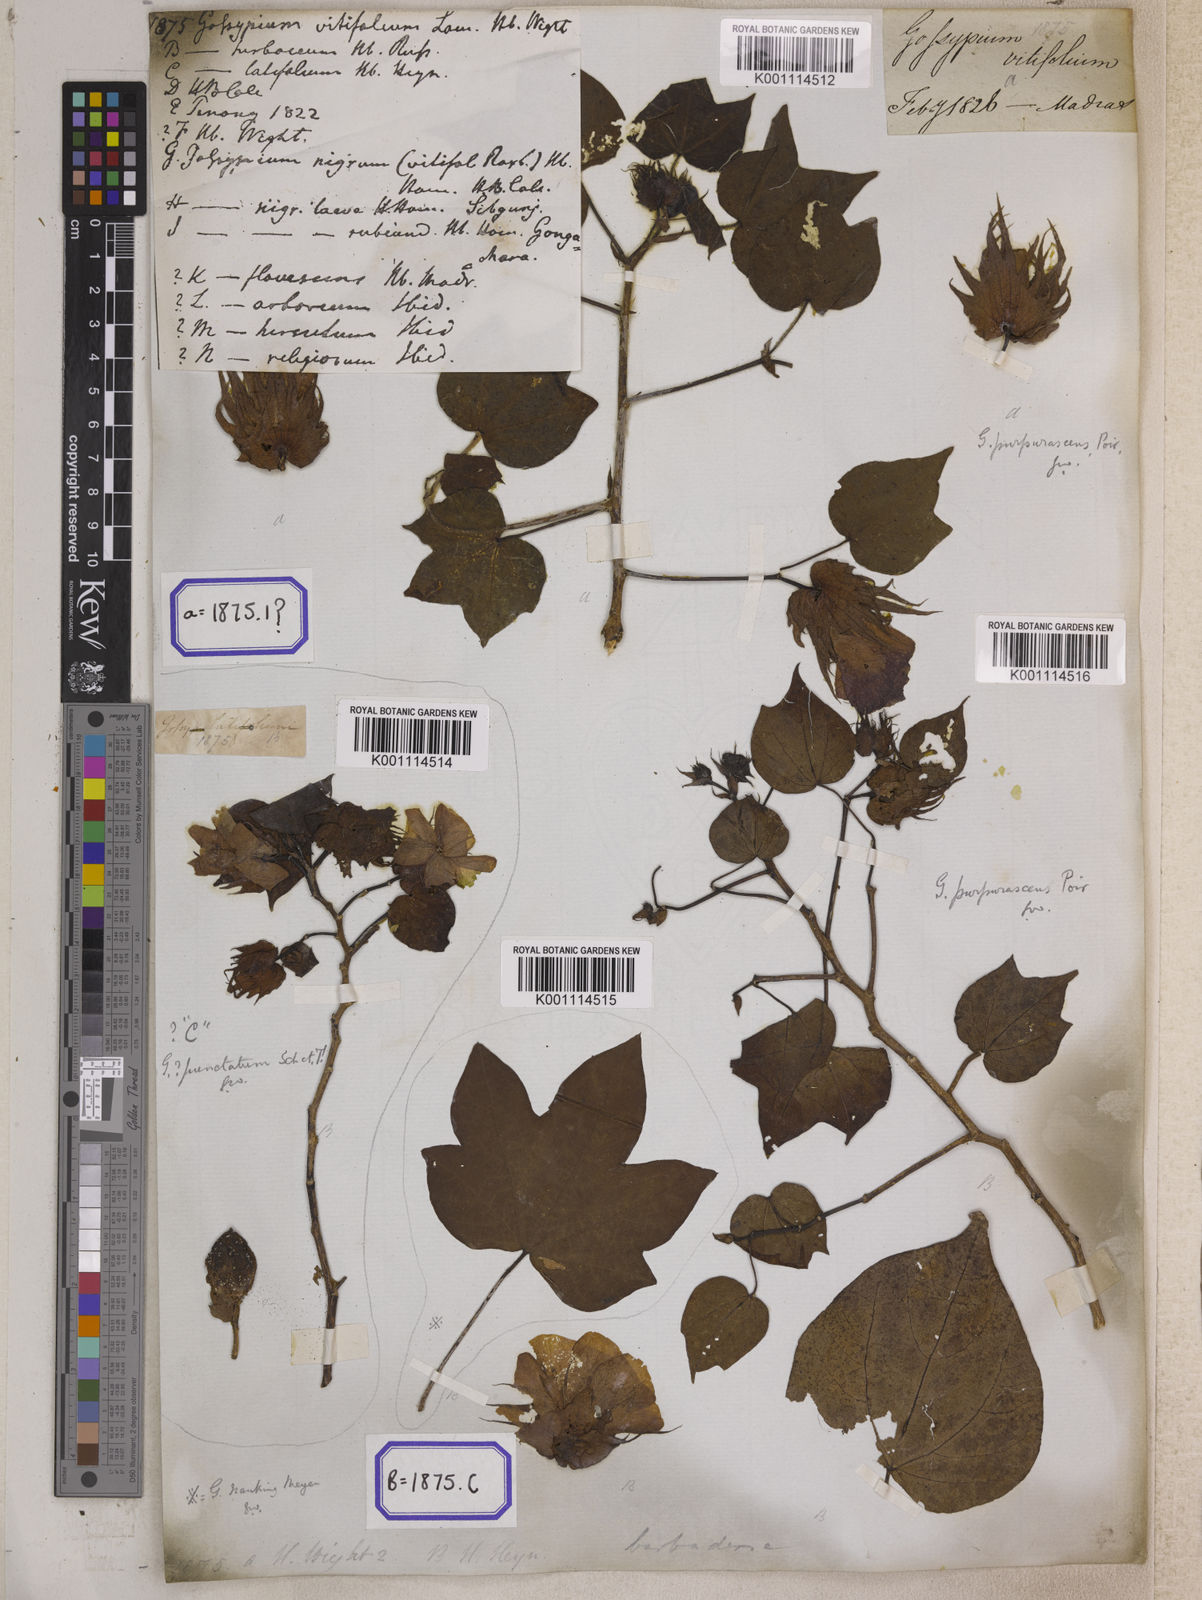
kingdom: Plantae
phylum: Tracheophyta
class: Magnoliopsida
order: Malvales
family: Malvaceae
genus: Gossypium
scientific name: Gossypium barbadense
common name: Creole cotton
